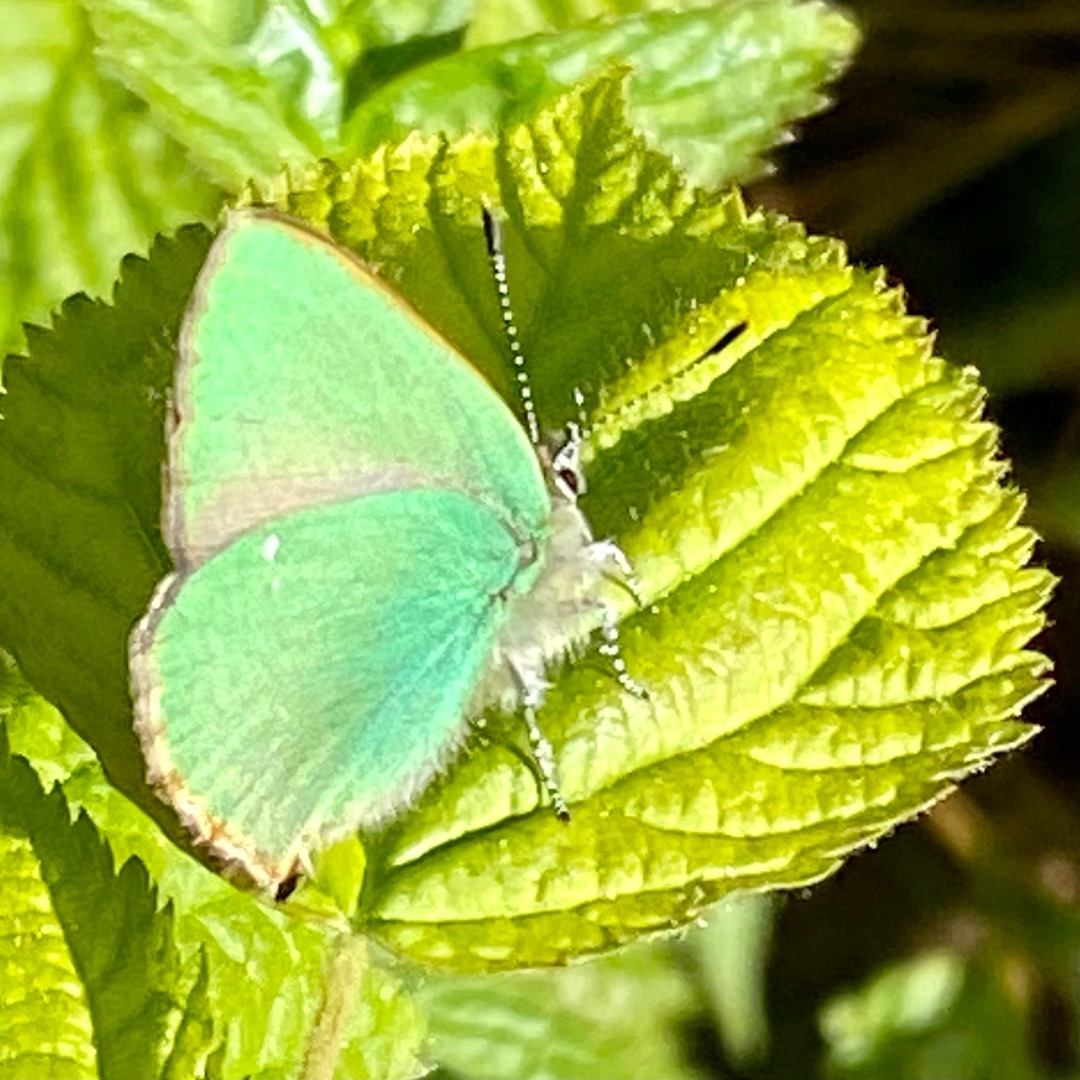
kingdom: Animalia
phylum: Arthropoda
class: Insecta
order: Lepidoptera
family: Lycaenidae
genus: Callophrys
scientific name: Callophrys rubi
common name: Grøn busksommerfugl
